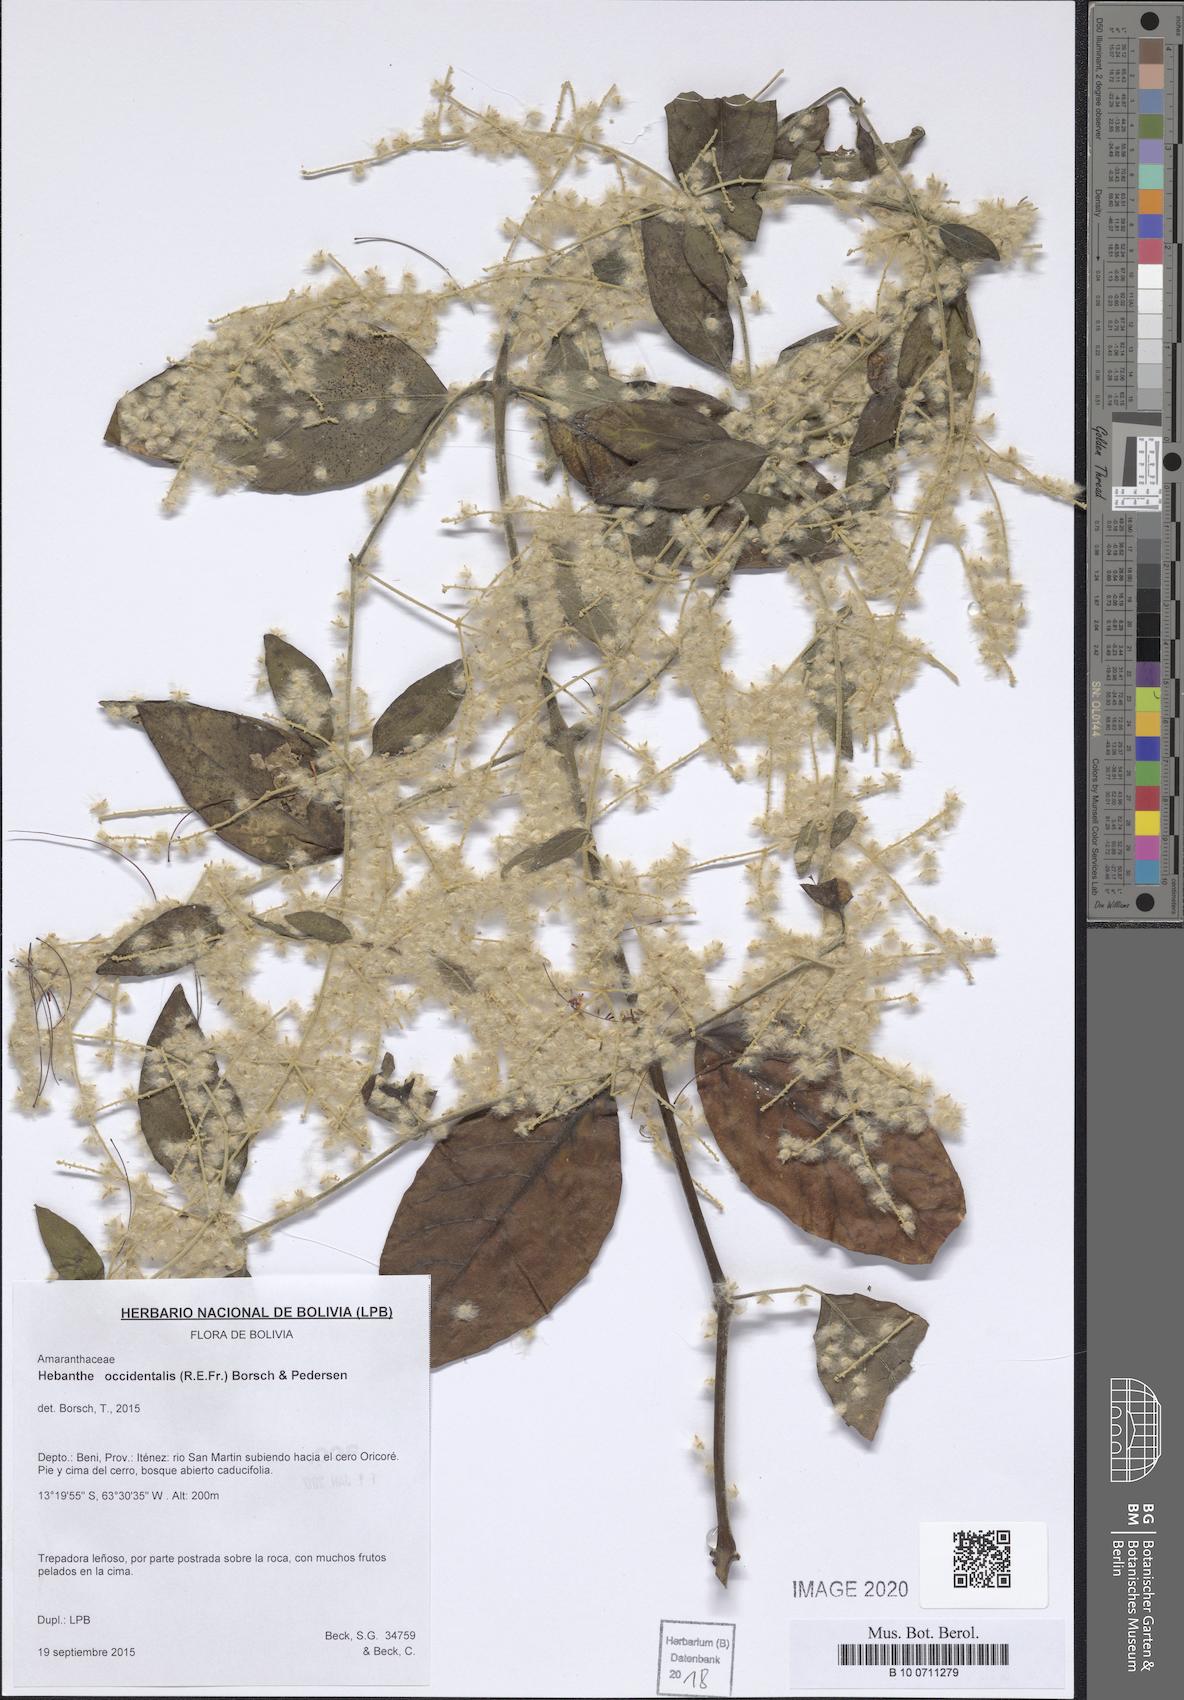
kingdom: Plantae
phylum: Tracheophyta
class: Magnoliopsida
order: Caryophyllales
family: Amaranthaceae
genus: Hebanthe
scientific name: Hebanthe occidentalis
